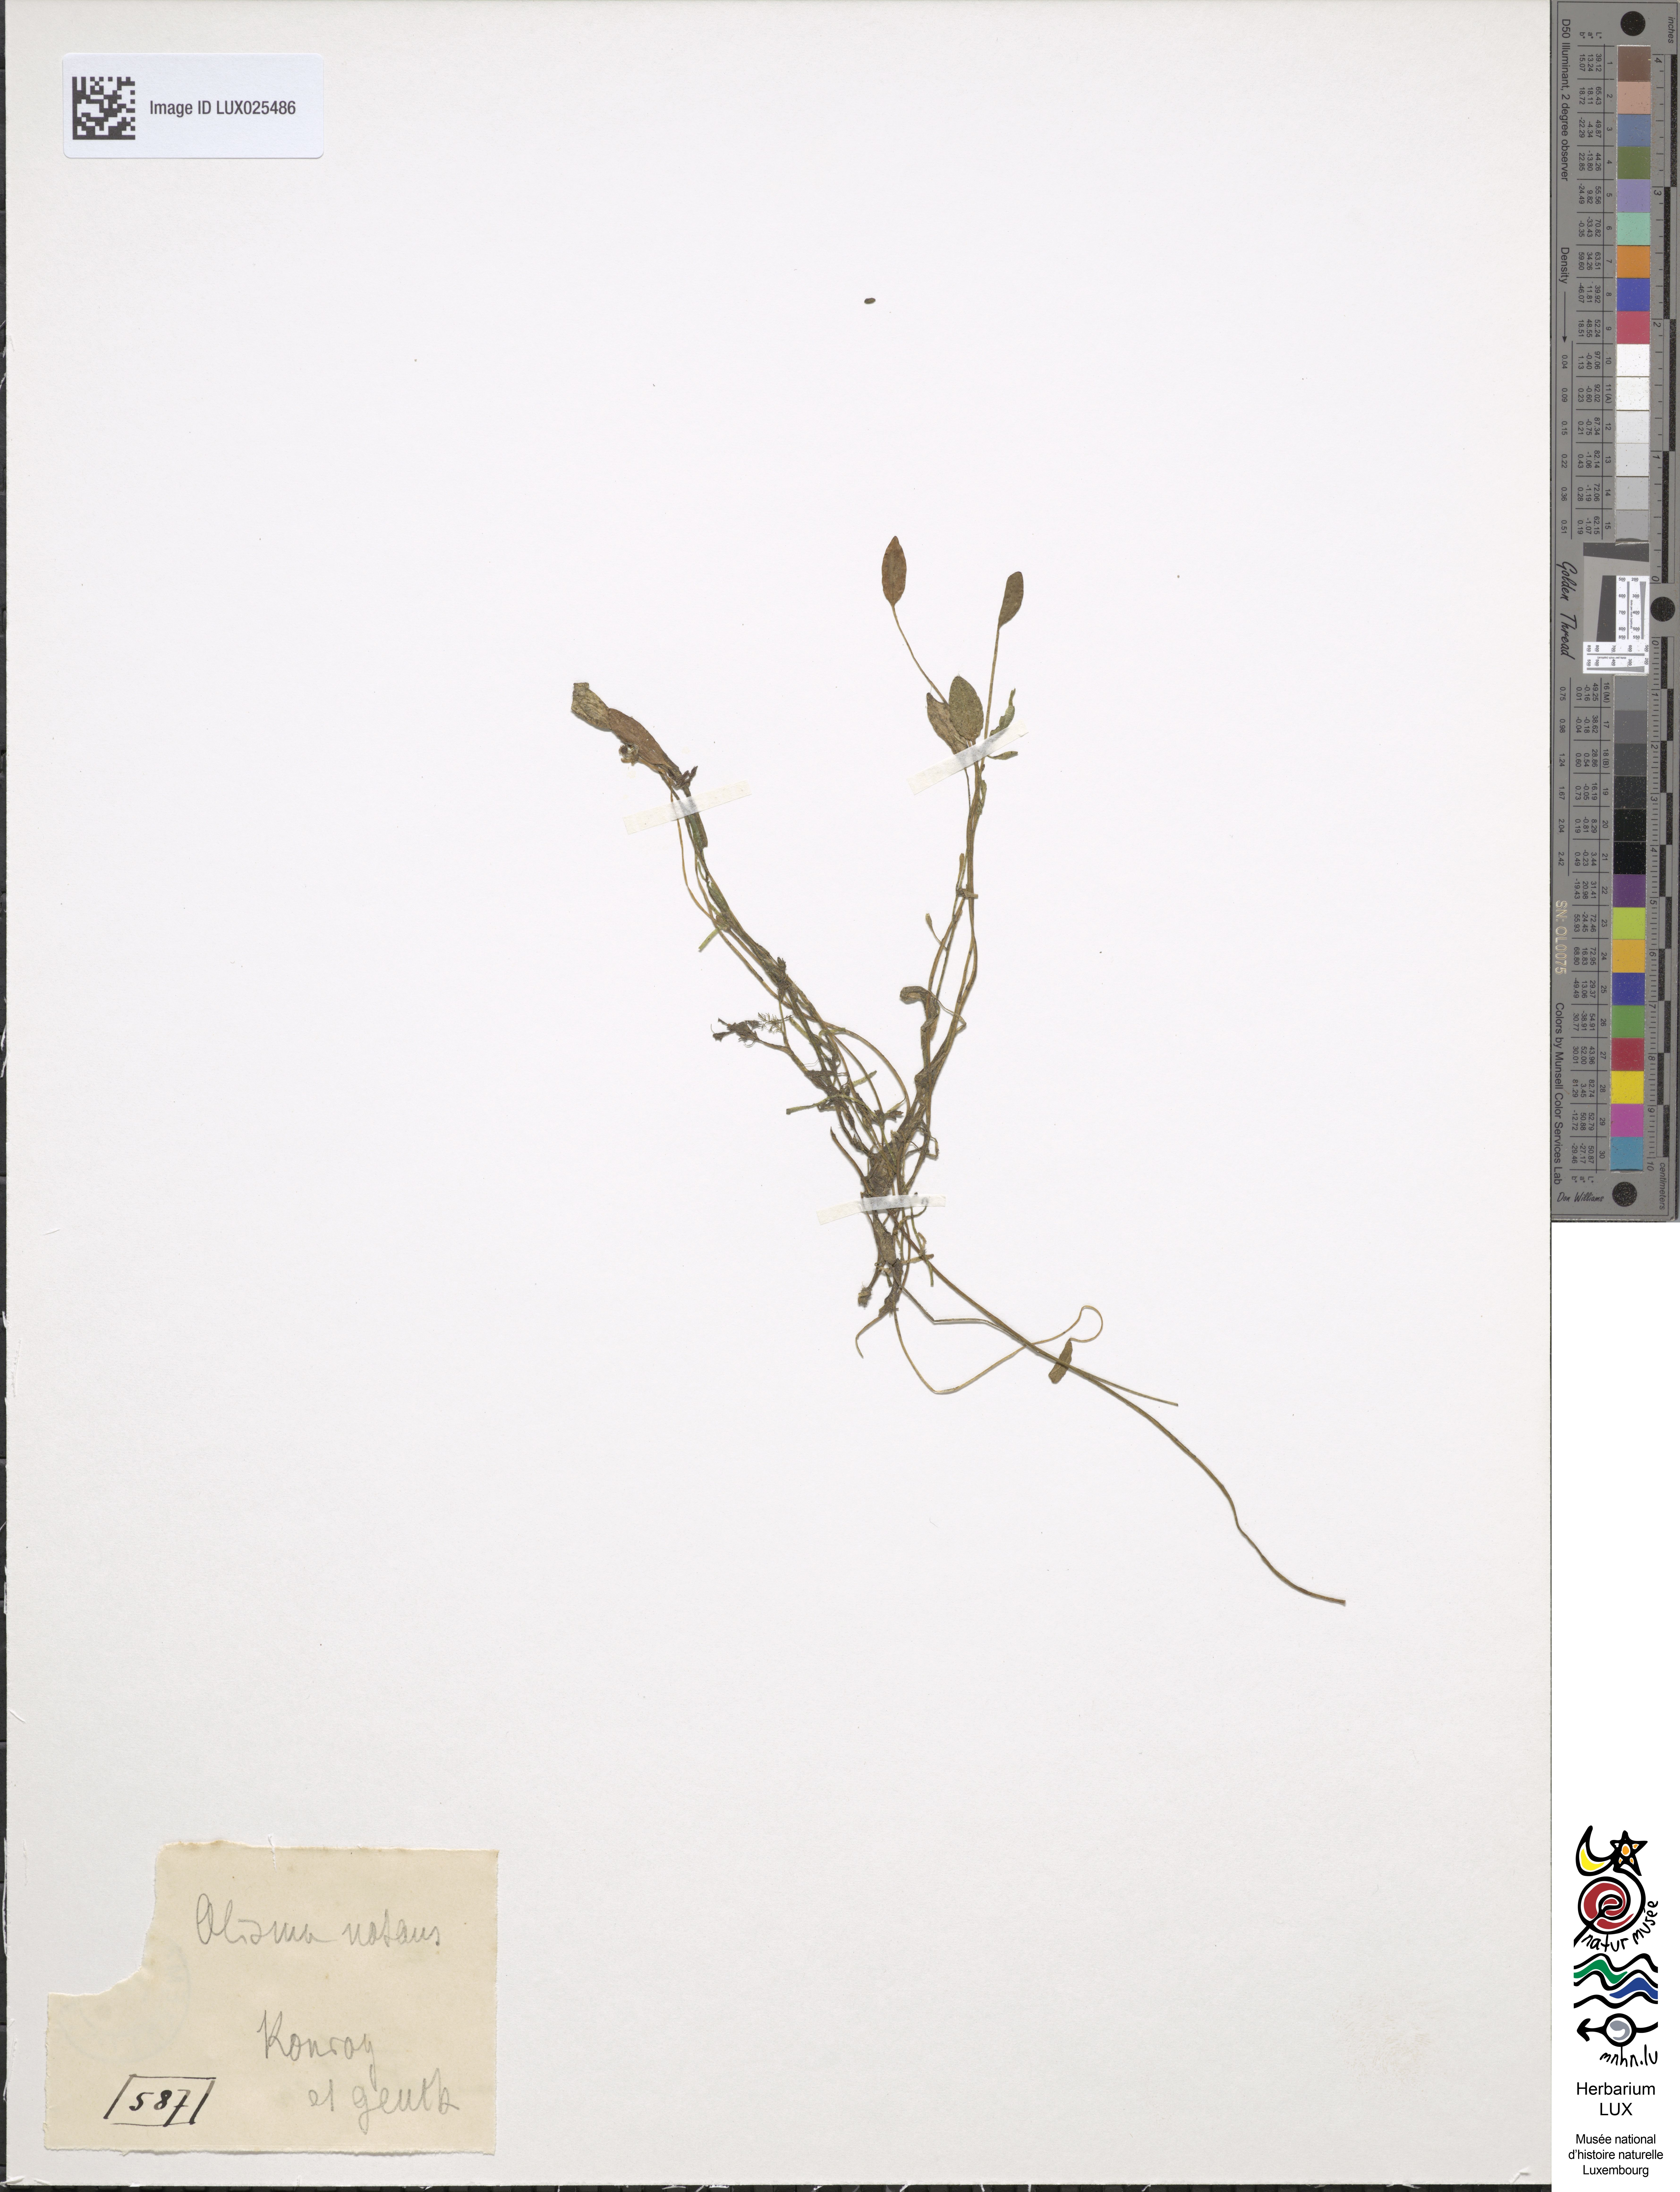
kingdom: Plantae
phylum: Tracheophyta
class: Liliopsida
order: Alismatales
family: Alismataceae
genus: Luronium
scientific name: Luronium natans
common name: Floating water-plantain
